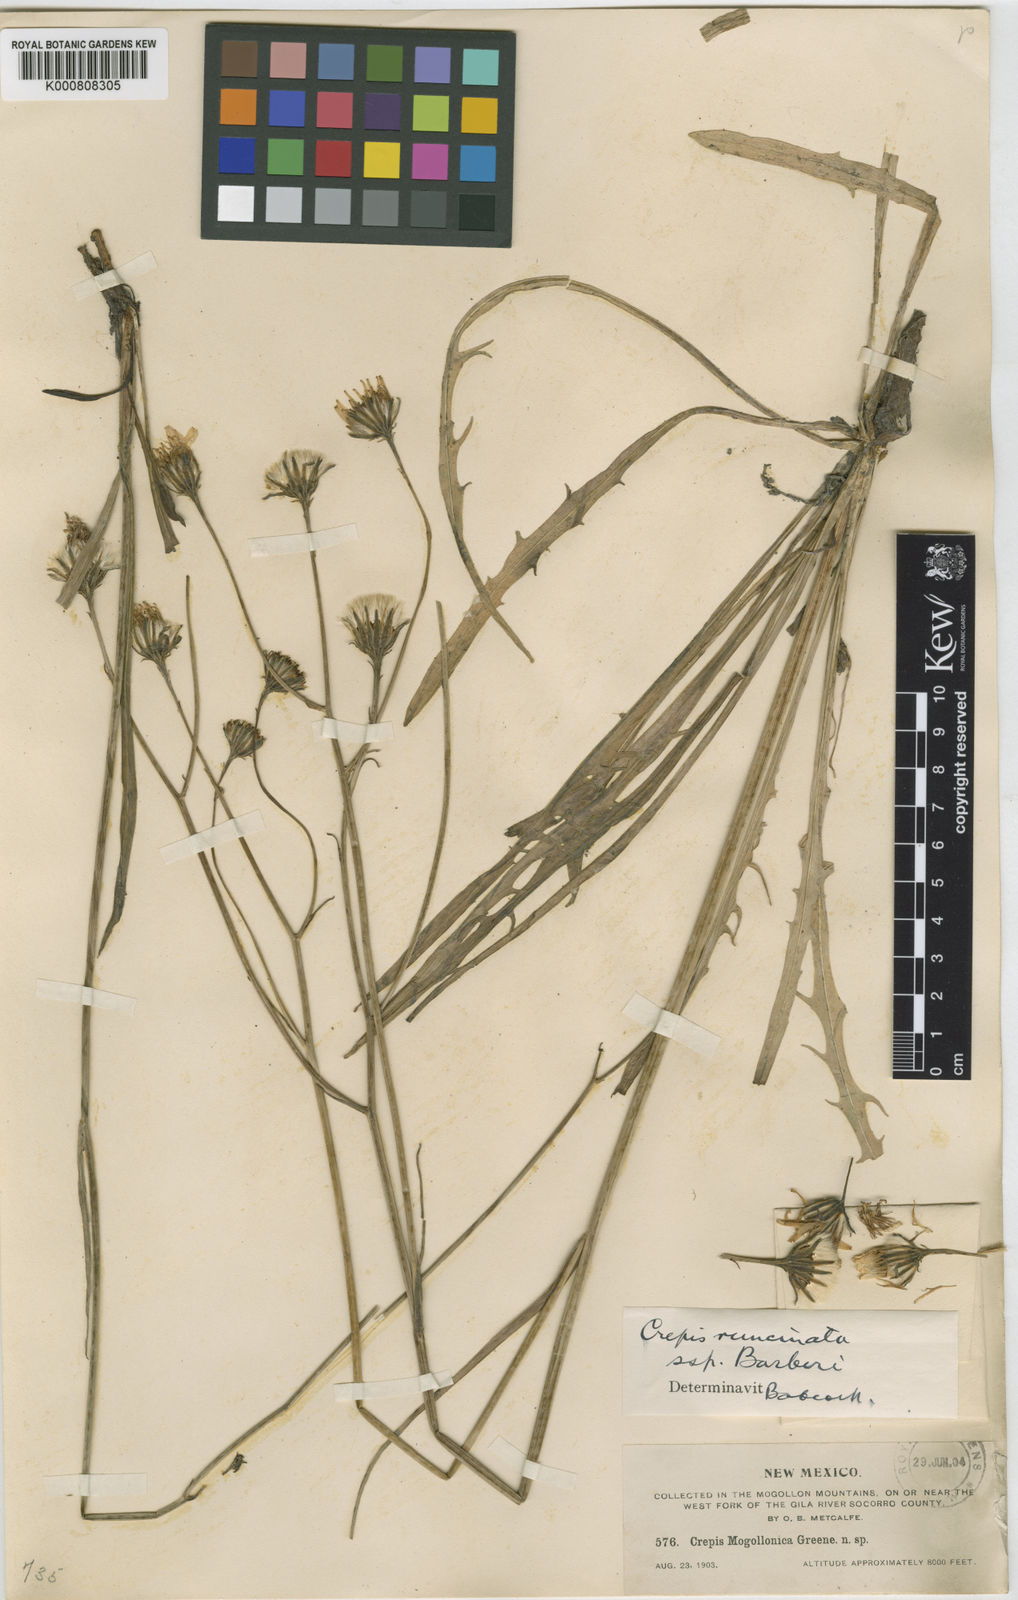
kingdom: Plantae
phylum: Tracheophyta
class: Magnoliopsida
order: Asterales
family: Asteraceae
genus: Crepis
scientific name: Crepis runcinata
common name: Dandelion hawksbeard
